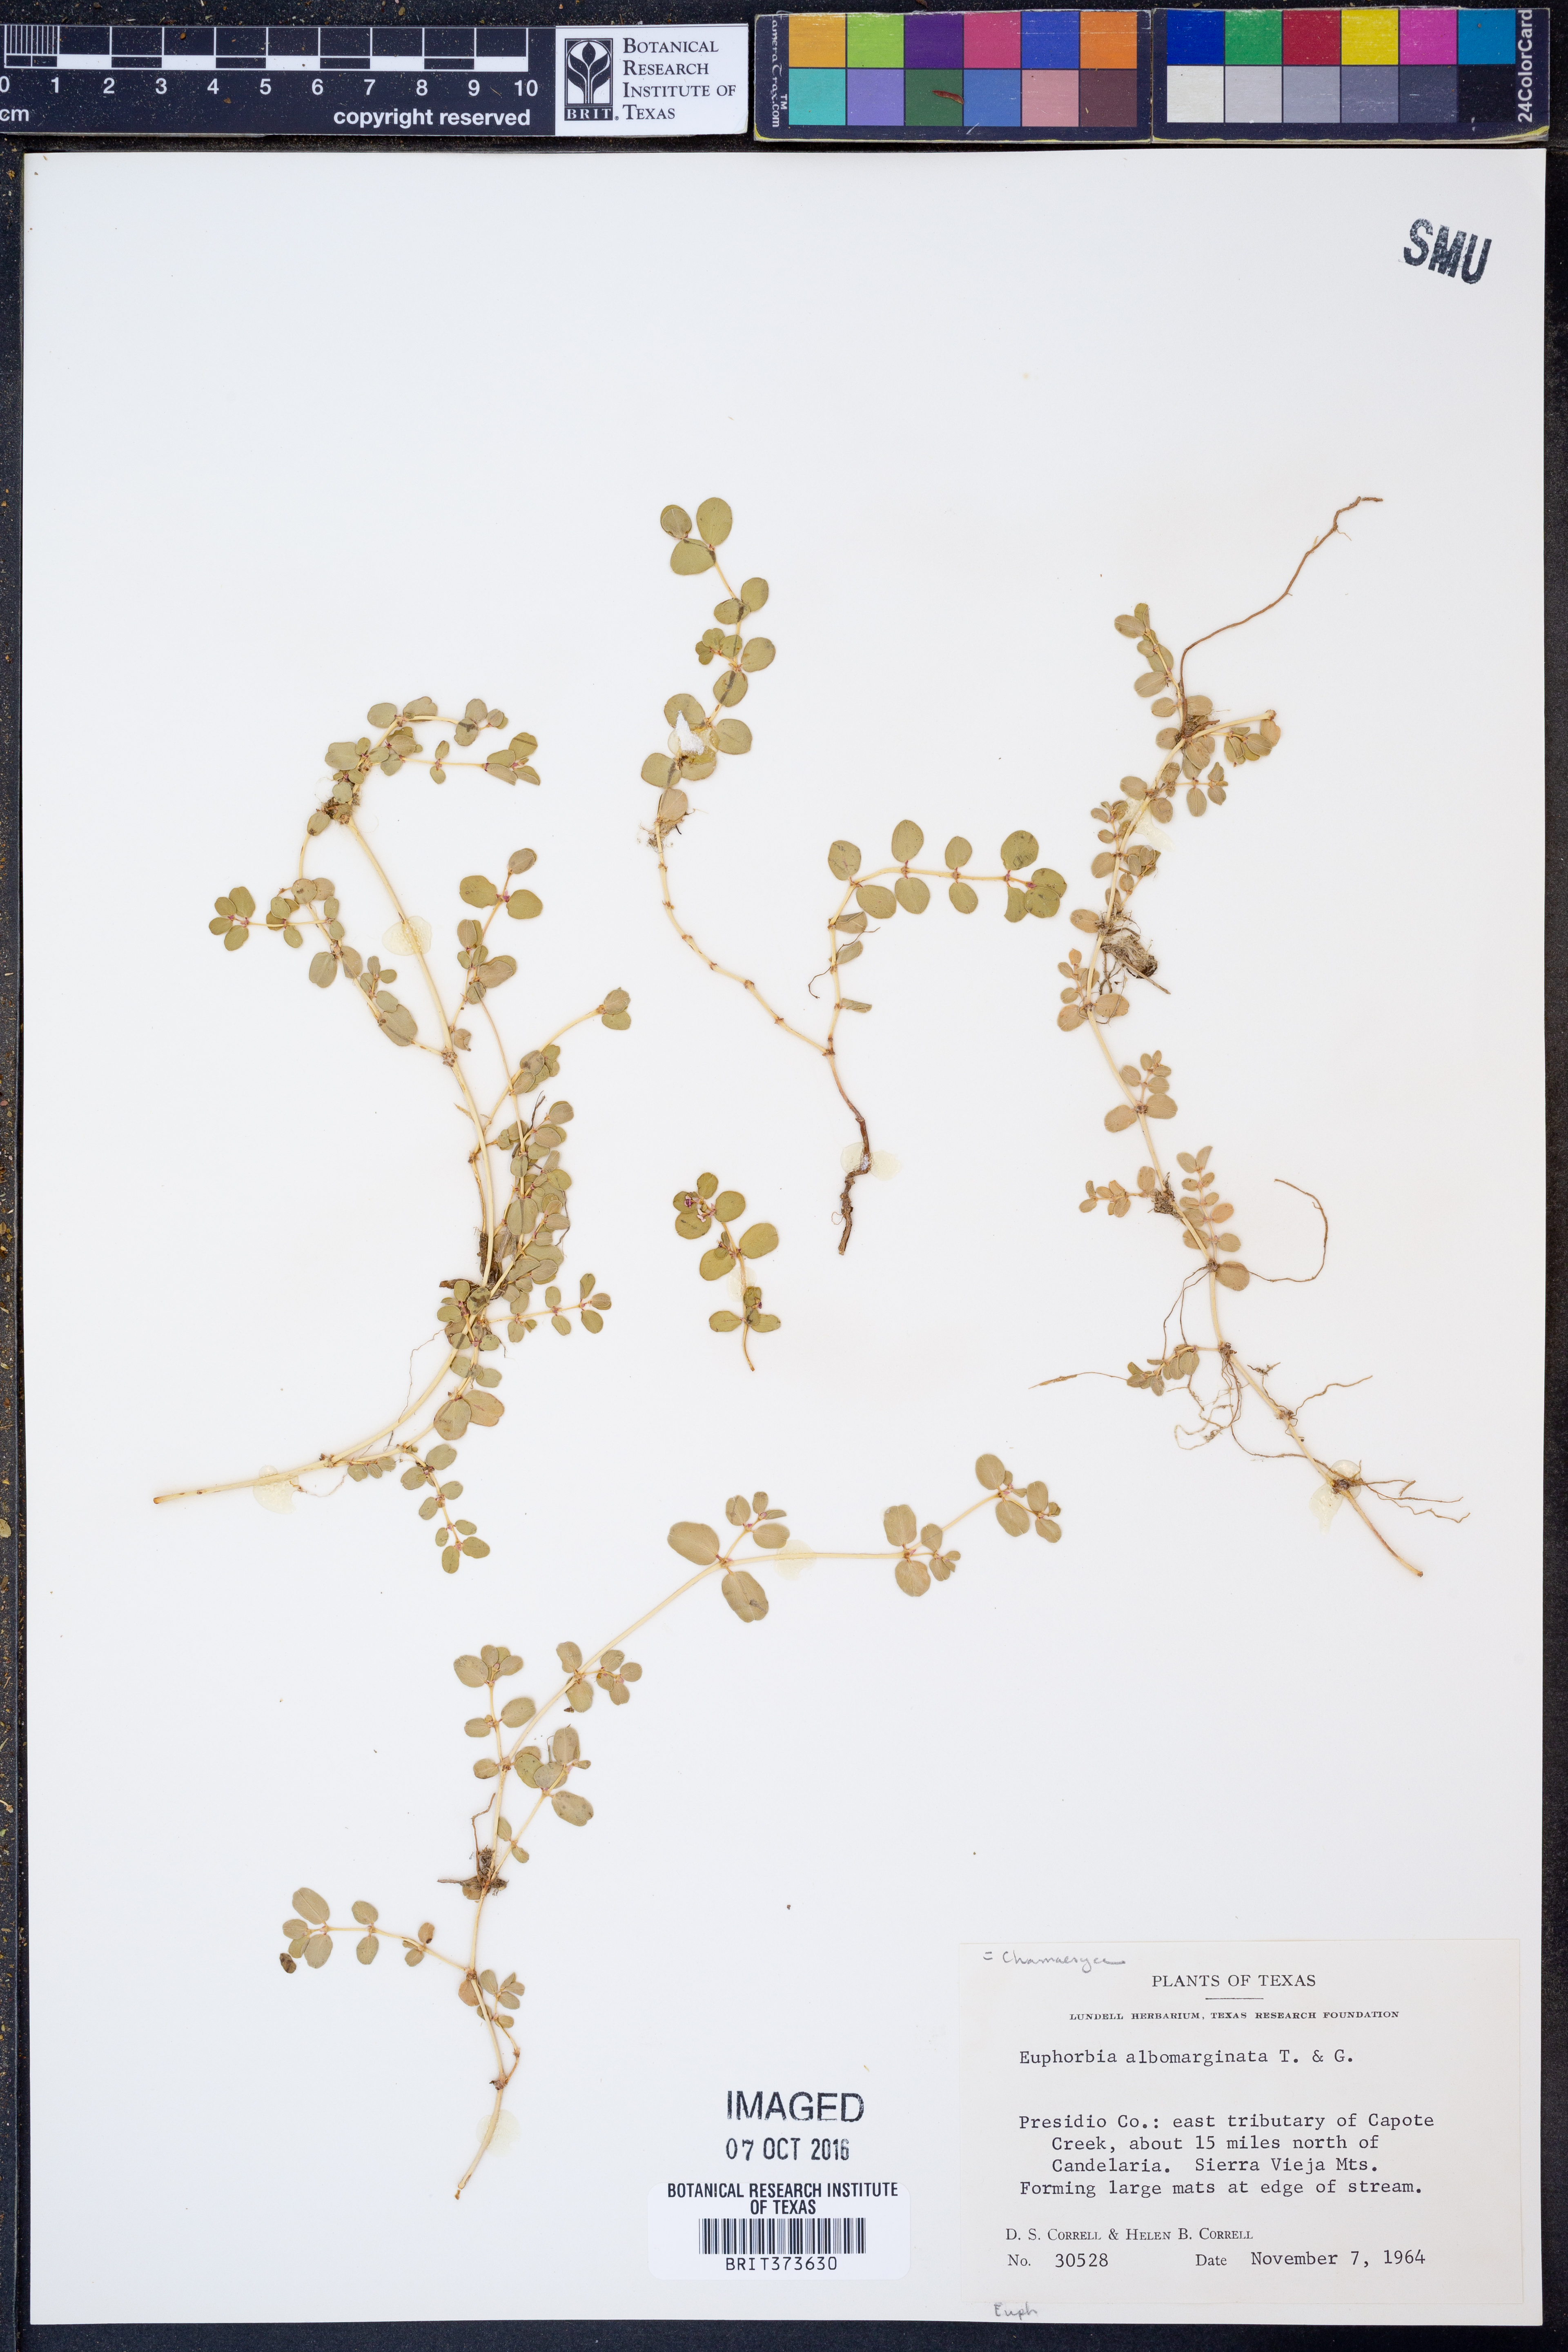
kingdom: Plantae
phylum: Tracheophyta
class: Magnoliopsida
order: Malpighiales
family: Euphorbiaceae
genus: Euphorbia
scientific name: Euphorbia albomarginata
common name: Whitemargin sandmat
